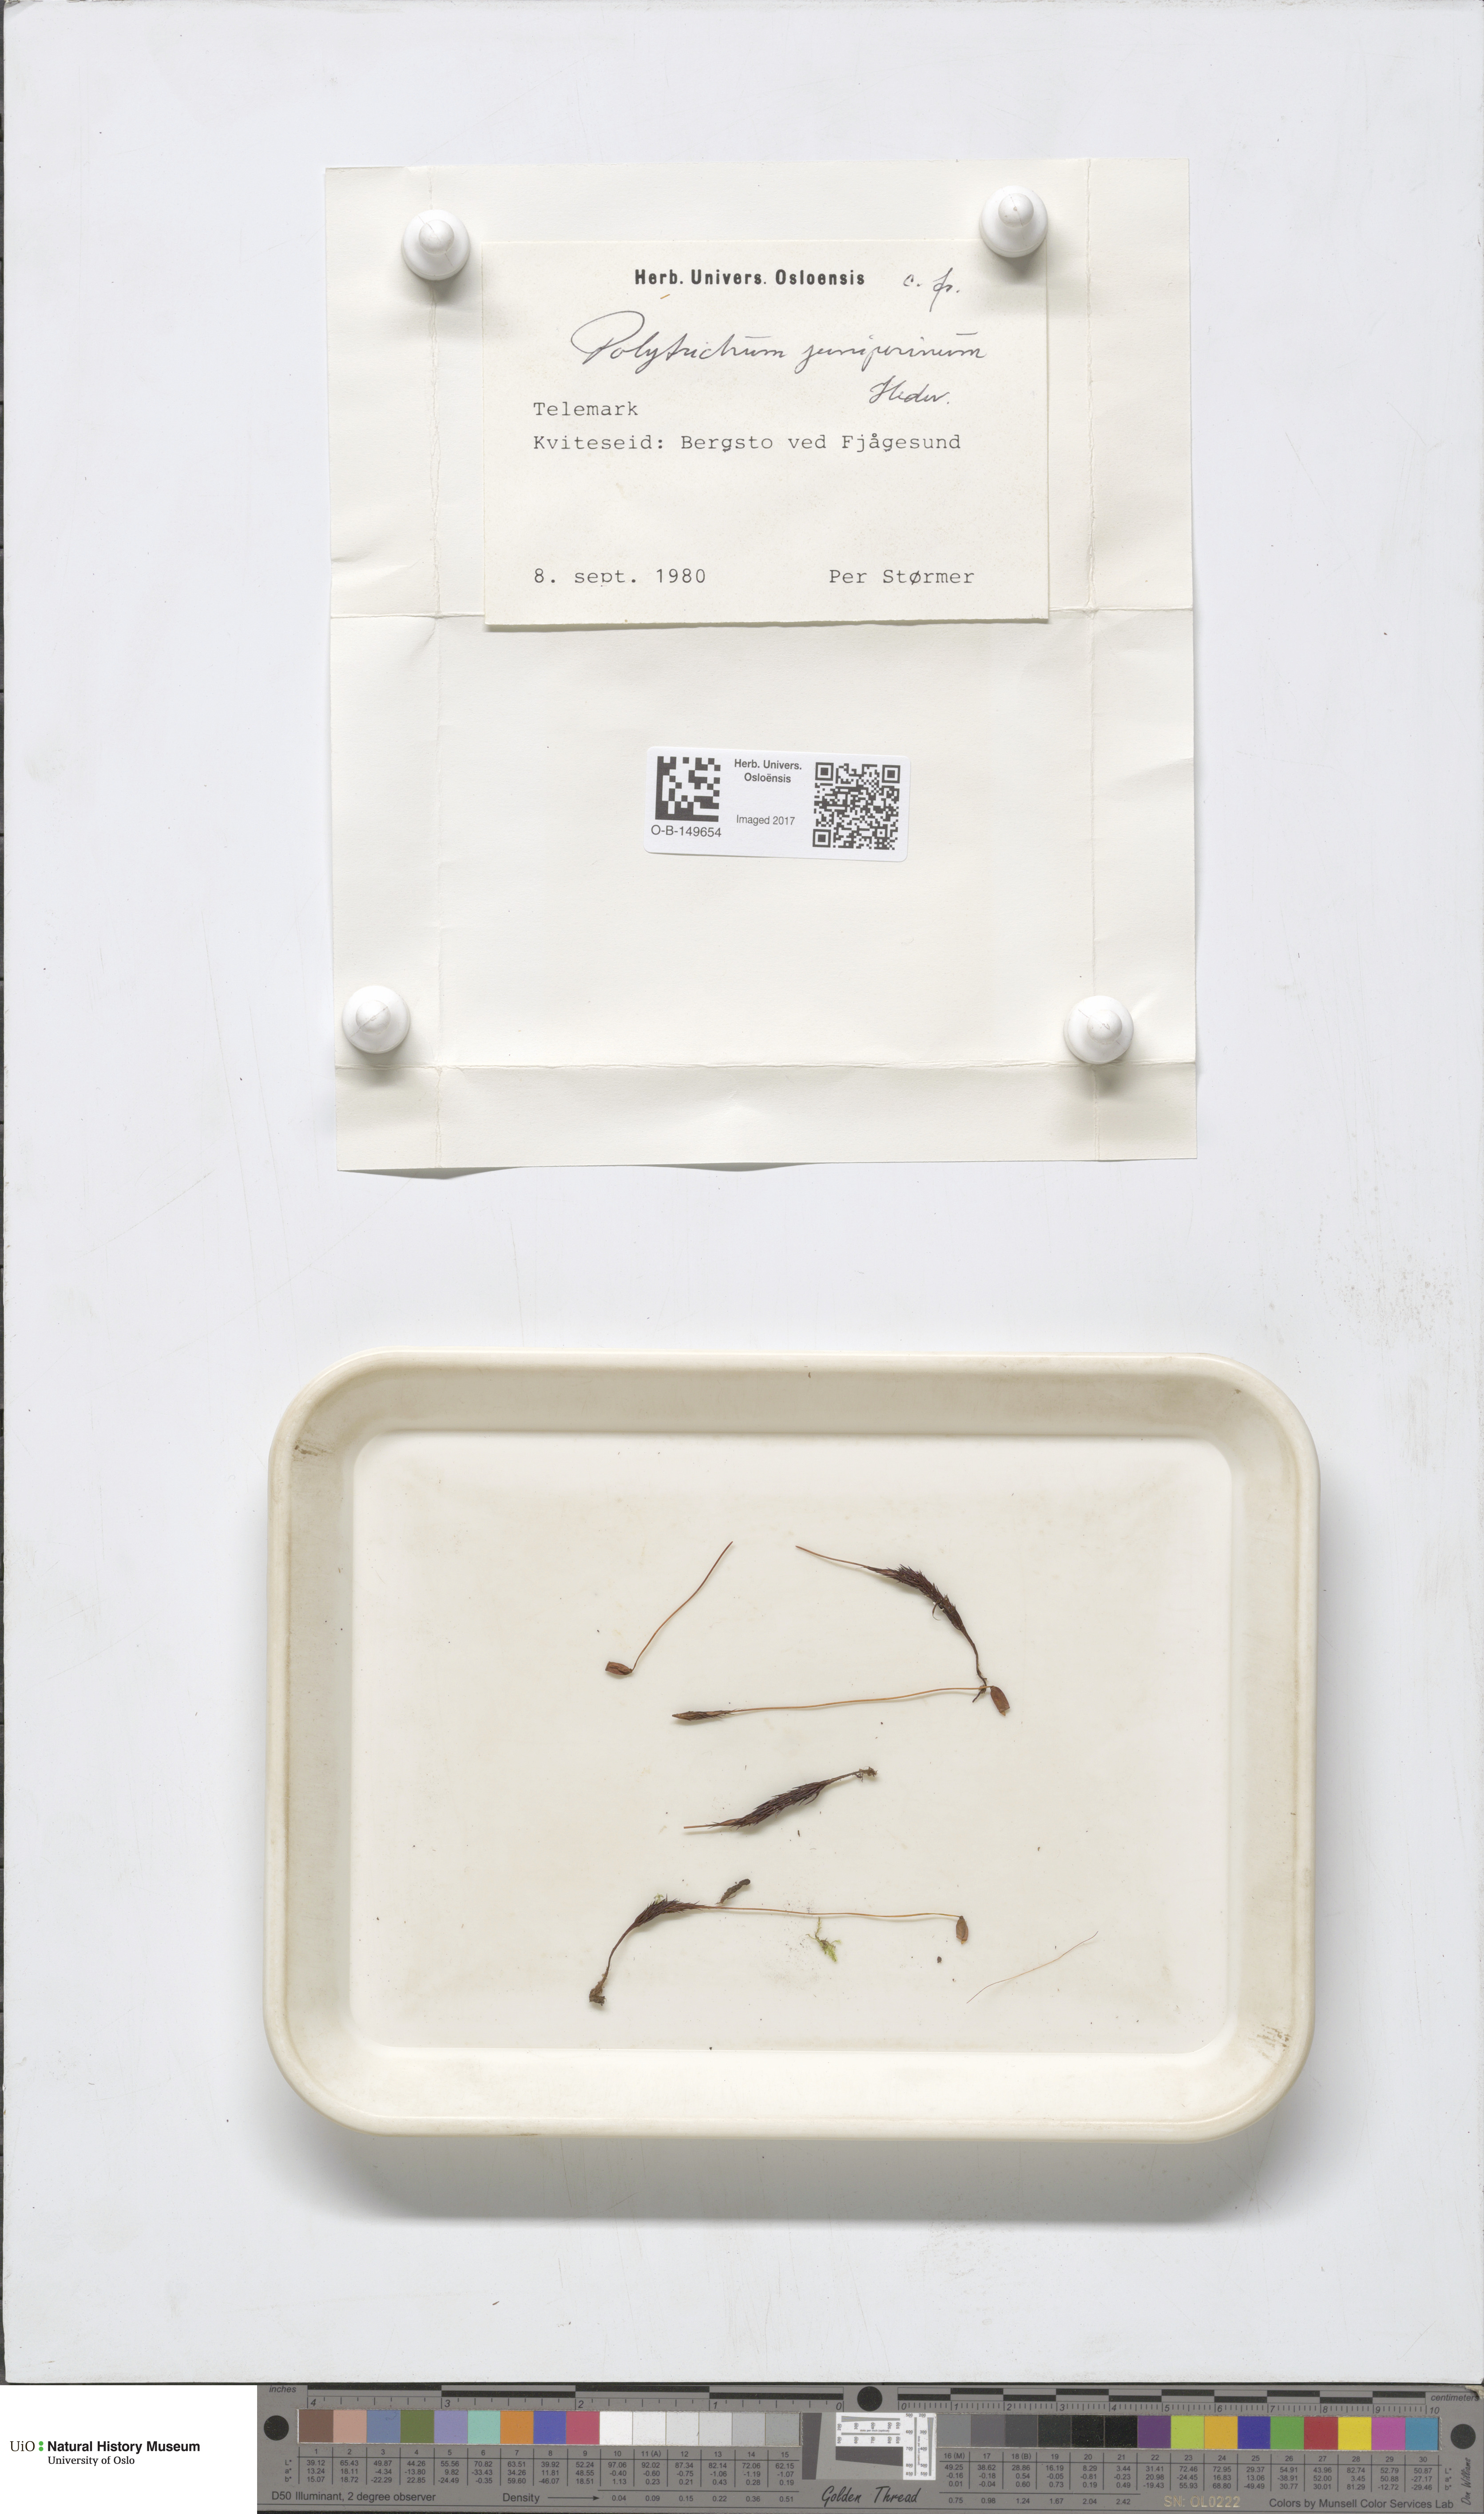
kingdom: Plantae
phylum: Bryophyta
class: Polytrichopsida
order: Polytrichales
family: Polytrichaceae
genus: Polytrichum
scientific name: Polytrichum juniperinum
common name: Juniper haircap moss
